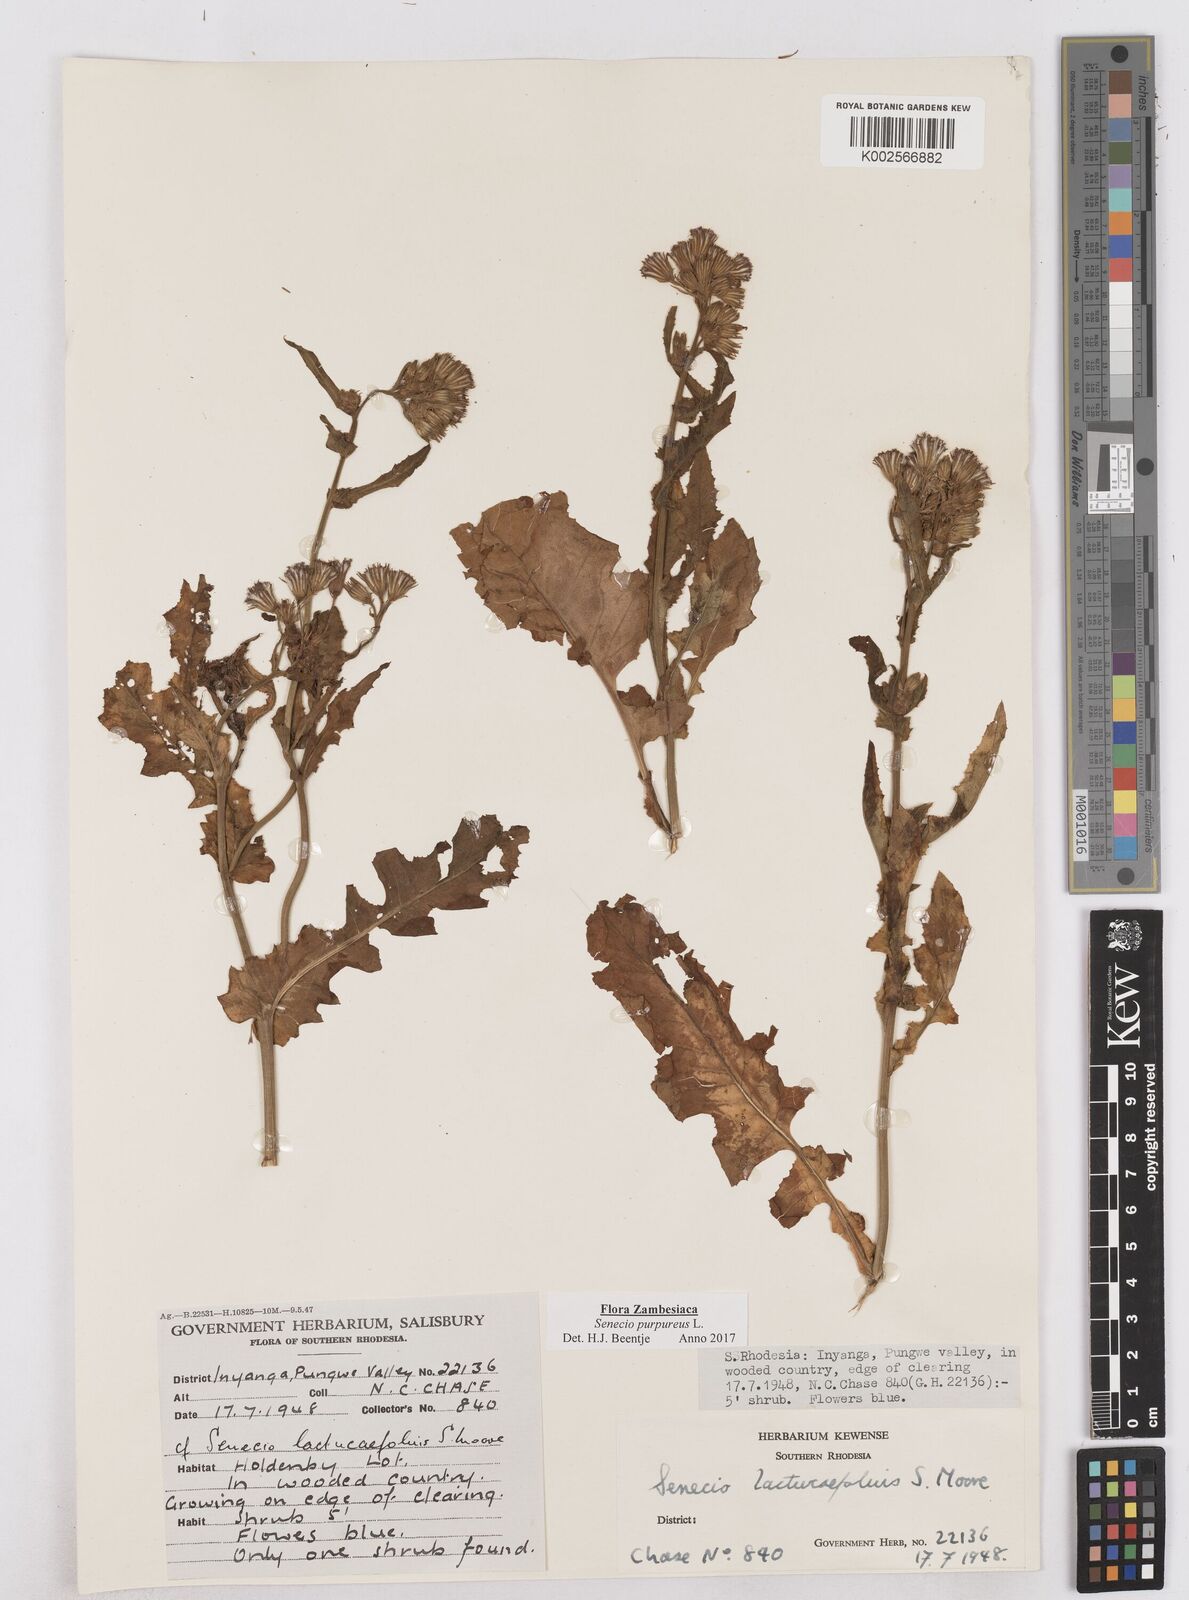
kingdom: Plantae
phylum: Tracheophyta
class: Magnoliopsida
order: Asterales
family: Asteraceae
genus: Senecio
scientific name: Senecio purpureus
